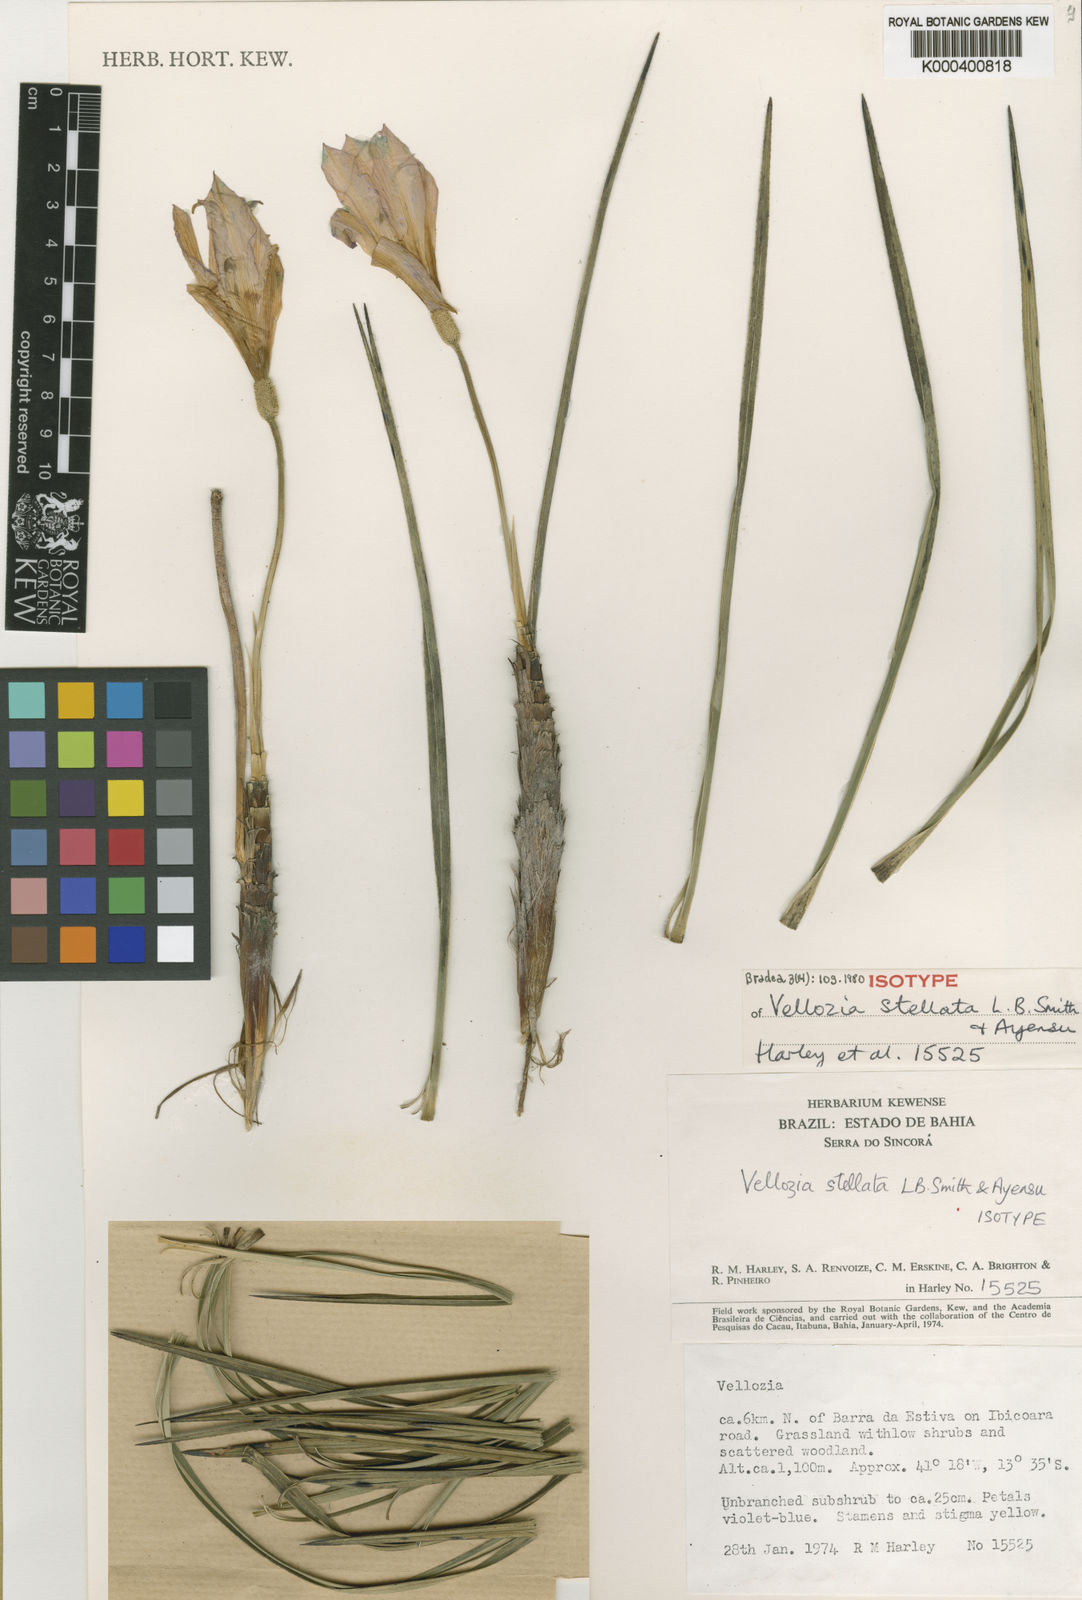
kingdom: Plantae
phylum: Tracheophyta
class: Liliopsida
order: Pandanales
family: Velloziaceae
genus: Vellozia
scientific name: Vellozia stellata
